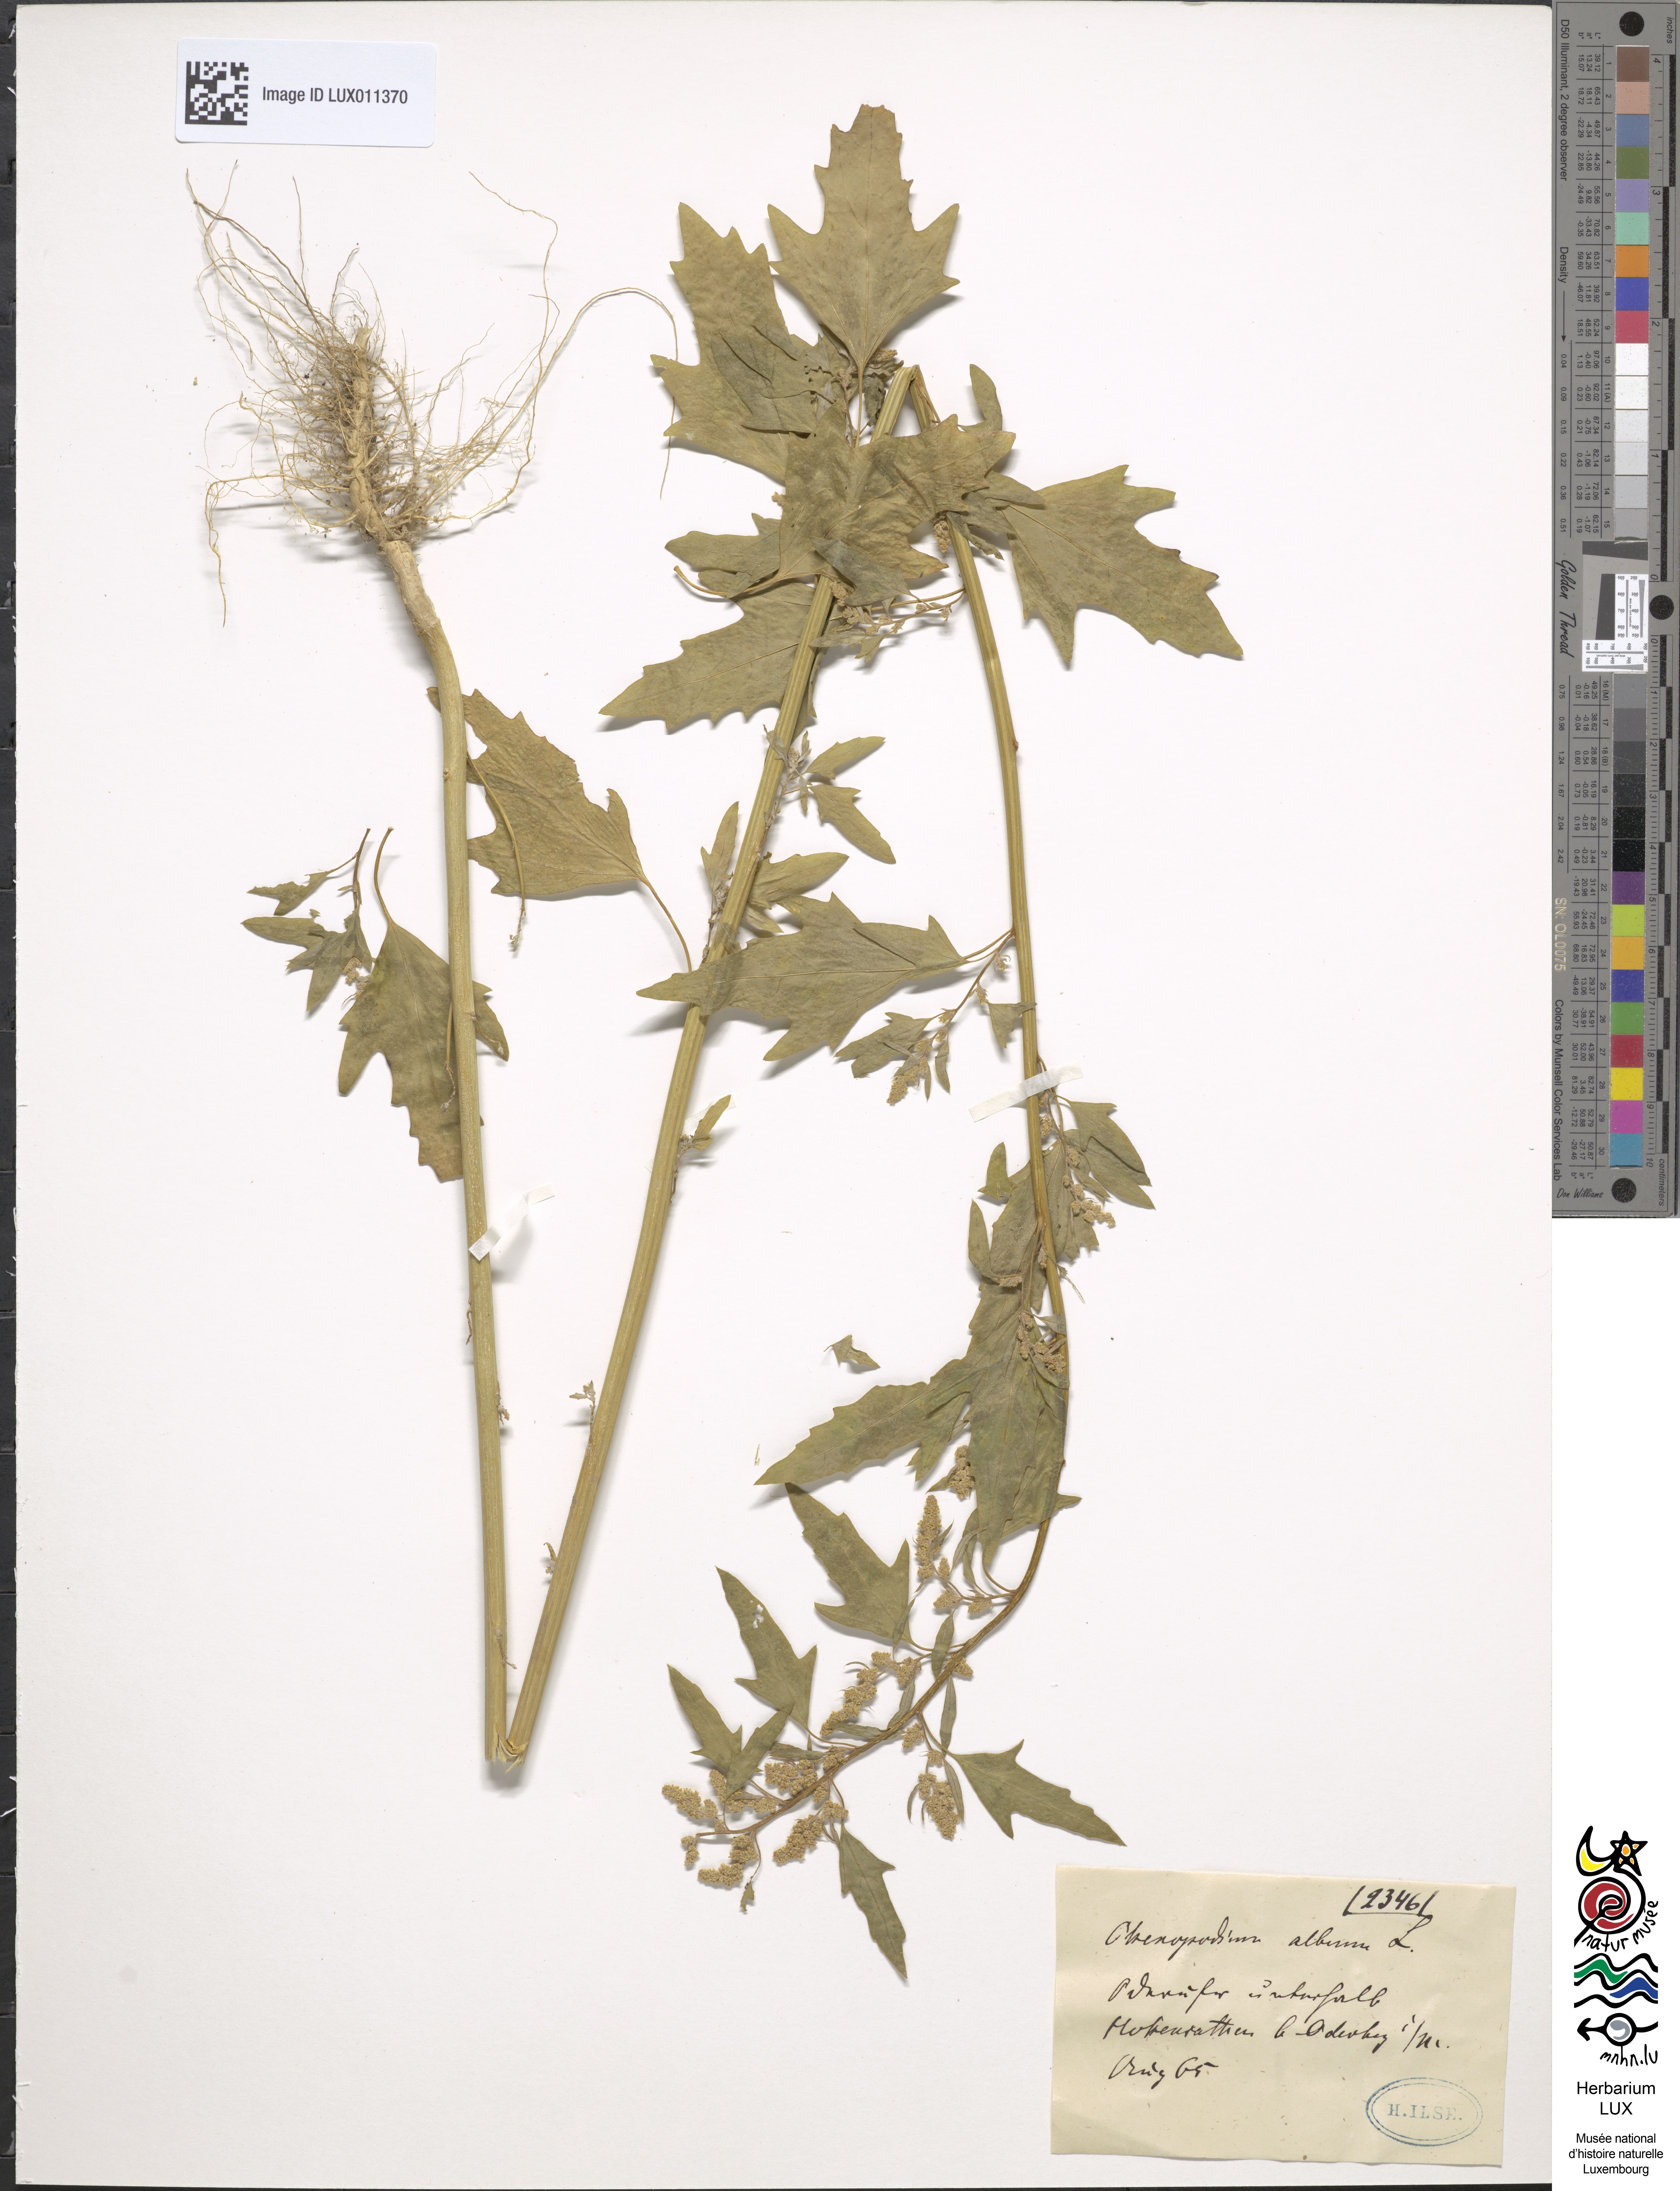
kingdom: Plantae
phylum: Tracheophyta
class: Magnoliopsida
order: Caryophyllales
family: Amaranthaceae
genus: Chenopodium
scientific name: Chenopodium album
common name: Fat-hen
